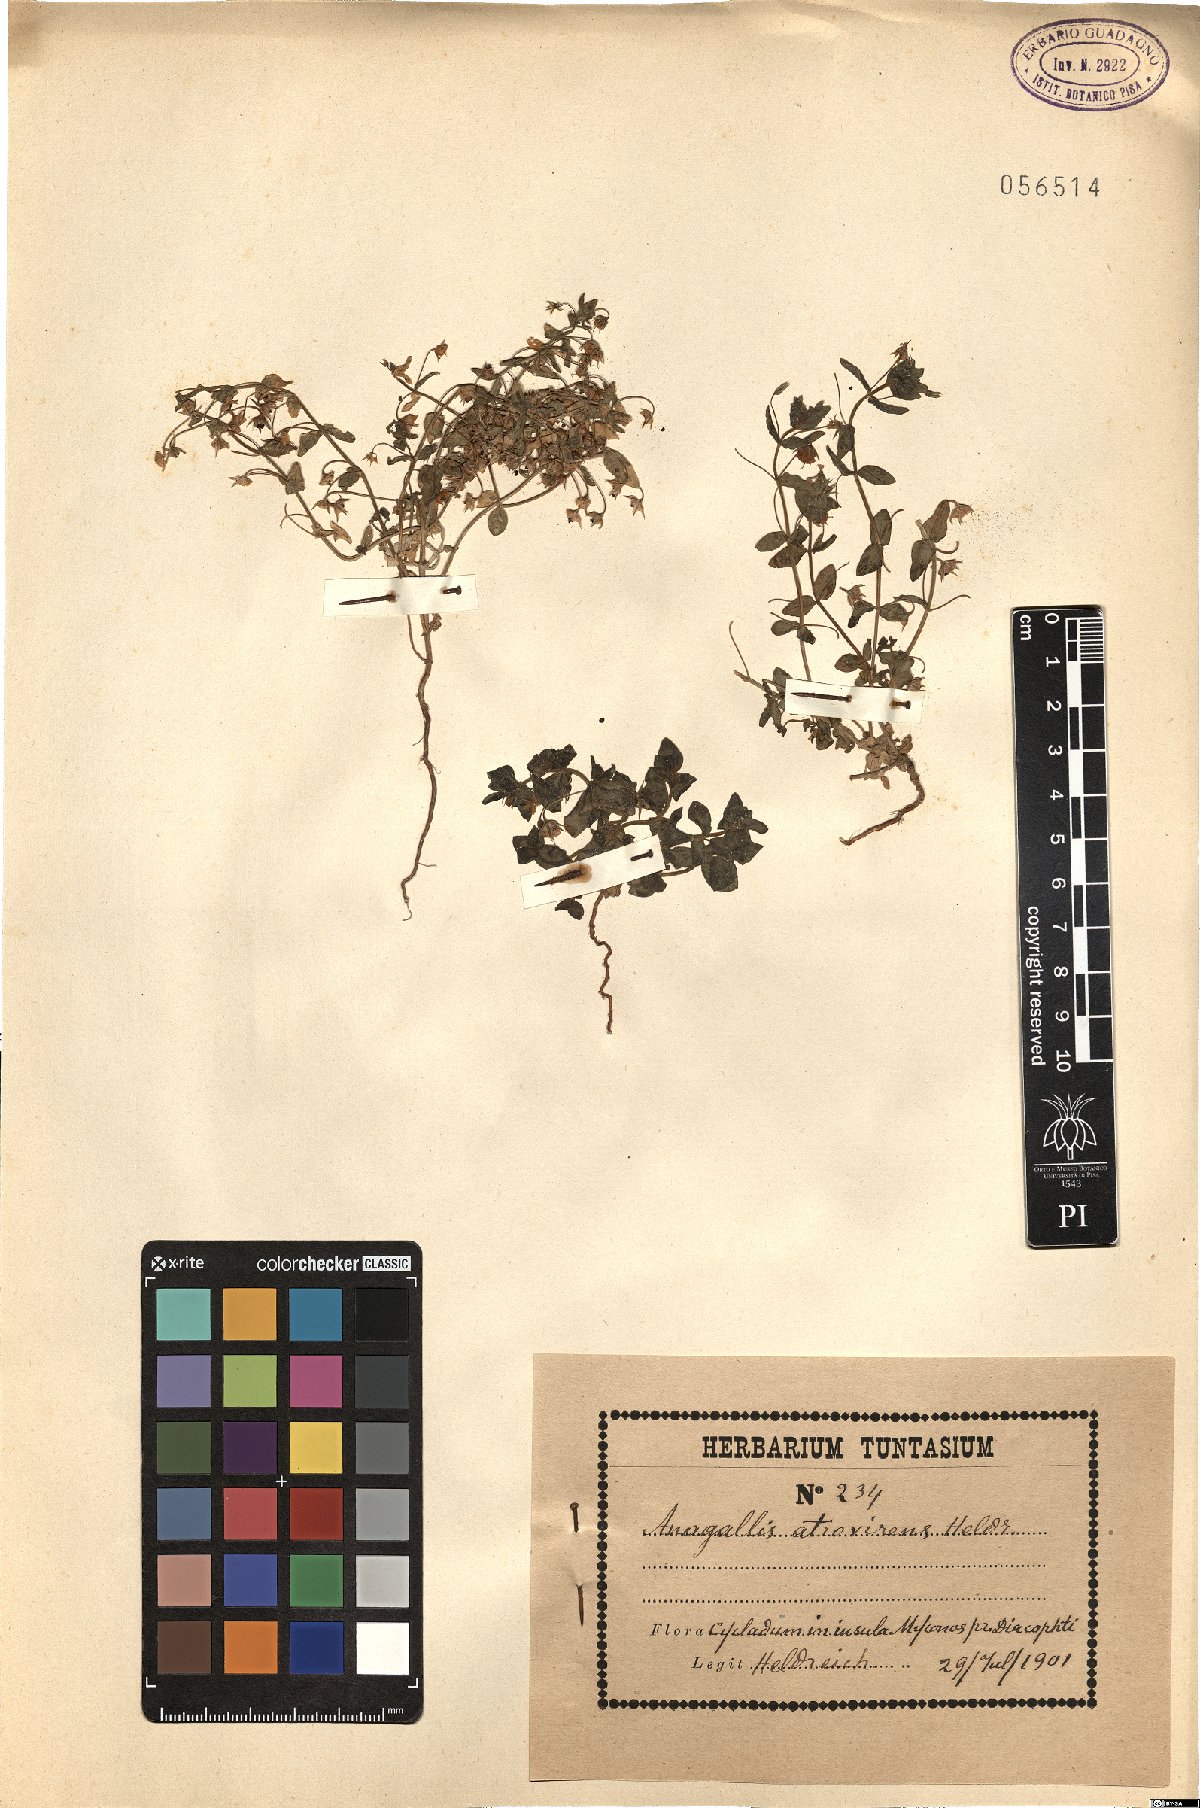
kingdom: Plantae
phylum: Tracheophyta
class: Magnoliopsida
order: Ericales
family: Primulaceae
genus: Lysimachia
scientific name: Lysimachia Anagallis spec
